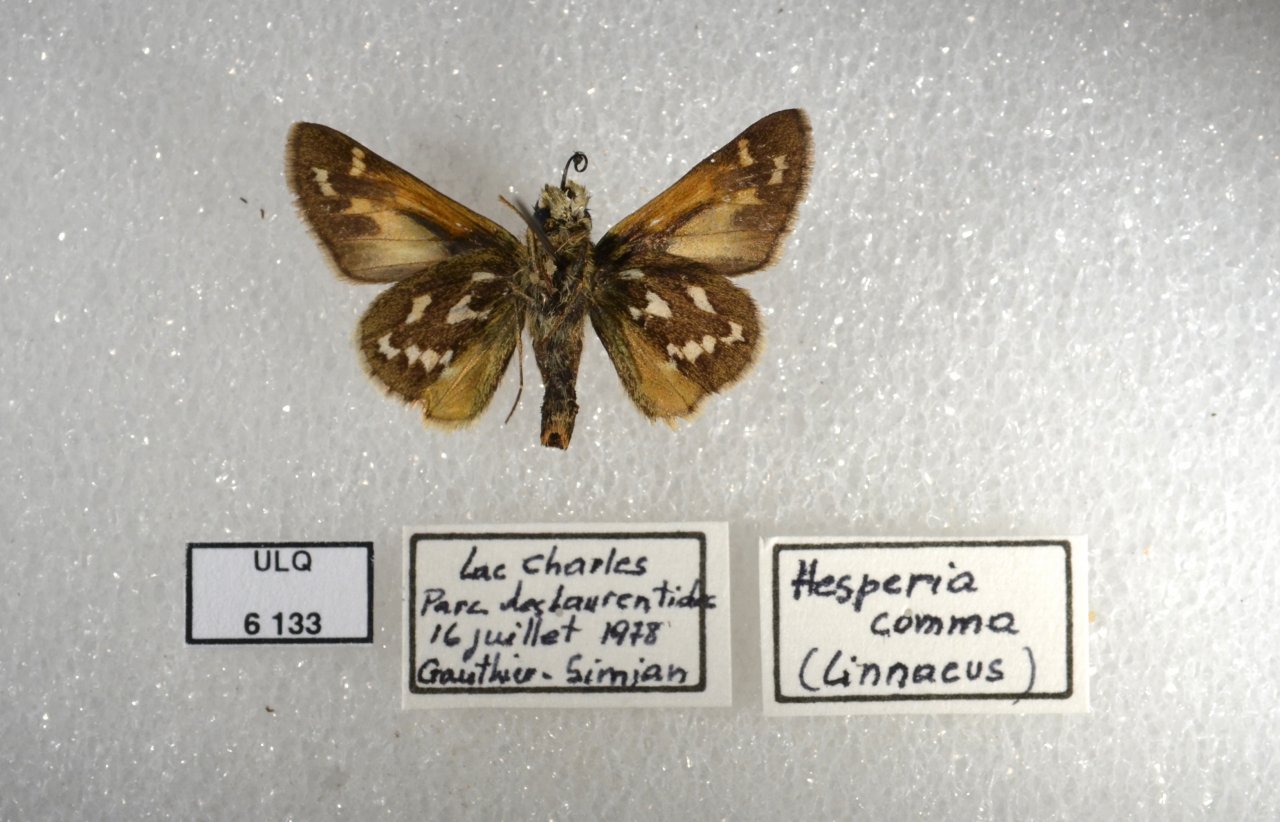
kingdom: Animalia
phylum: Arthropoda
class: Insecta
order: Lepidoptera
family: Hesperiidae
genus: Hesperia
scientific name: Hesperia comma
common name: Common Branded Skipper
